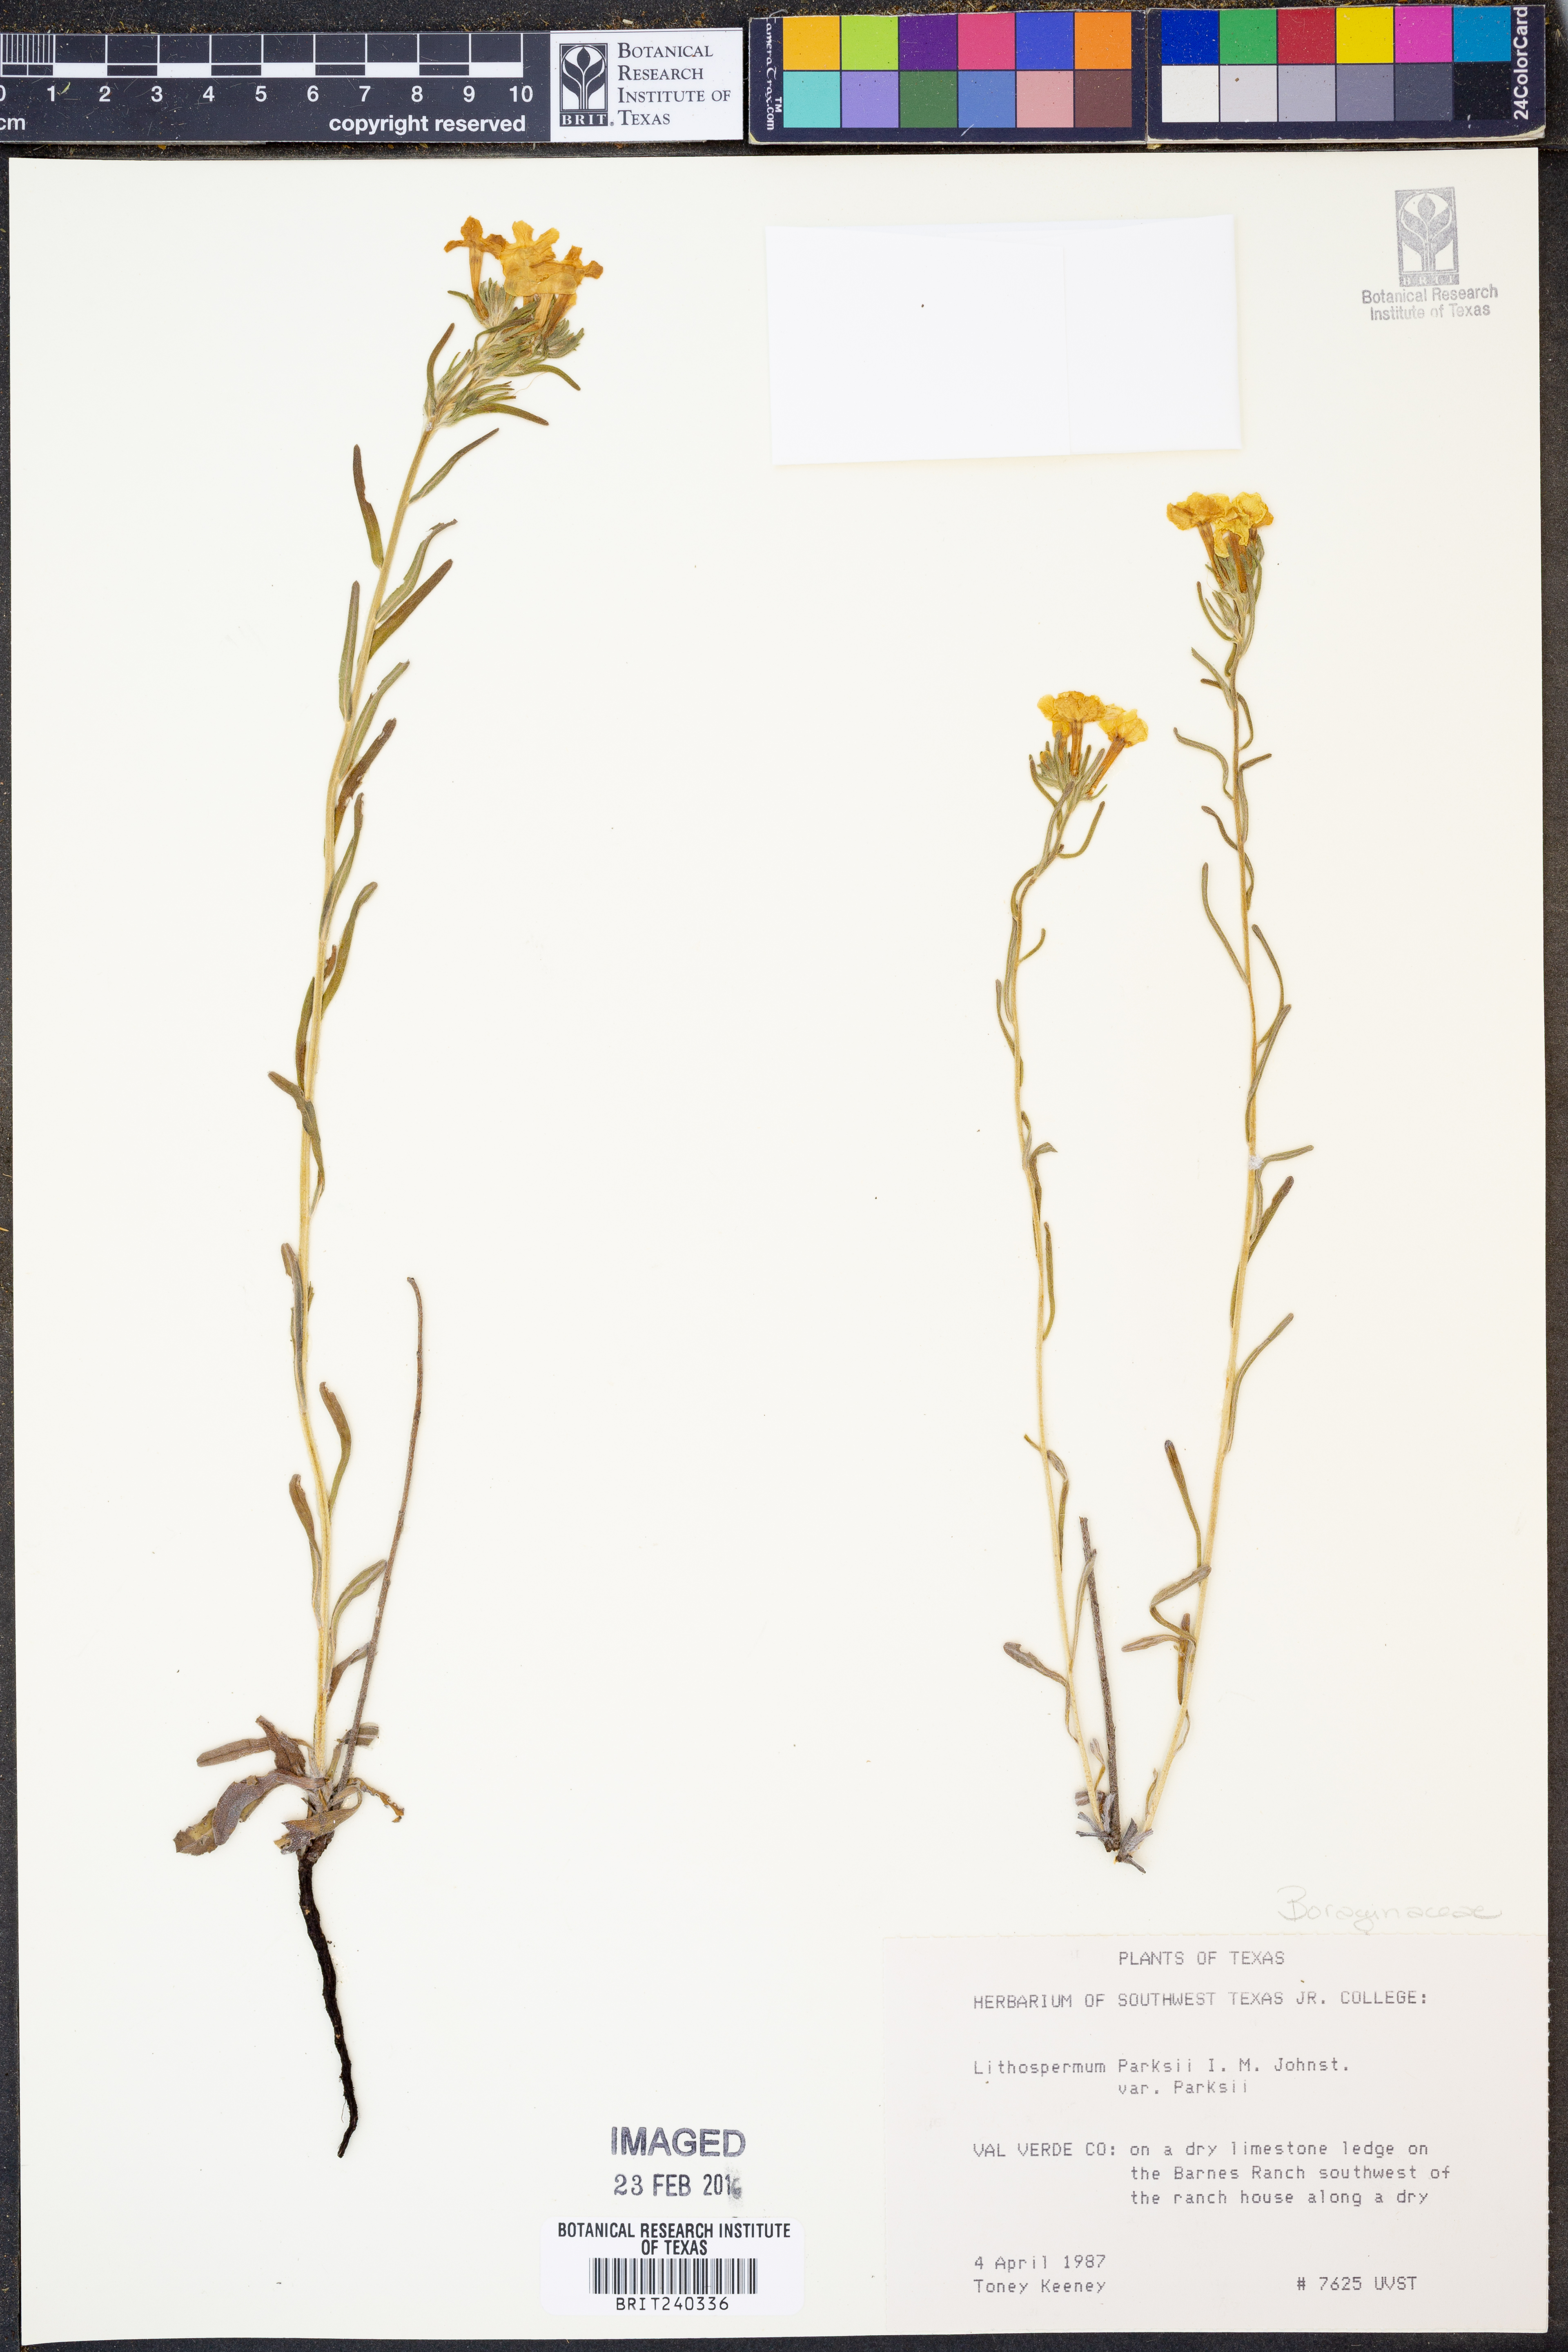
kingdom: Plantae
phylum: Tracheophyta
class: Magnoliopsida
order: Boraginales
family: Boraginaceae
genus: Lithospermum
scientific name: Lithospermum parksii
